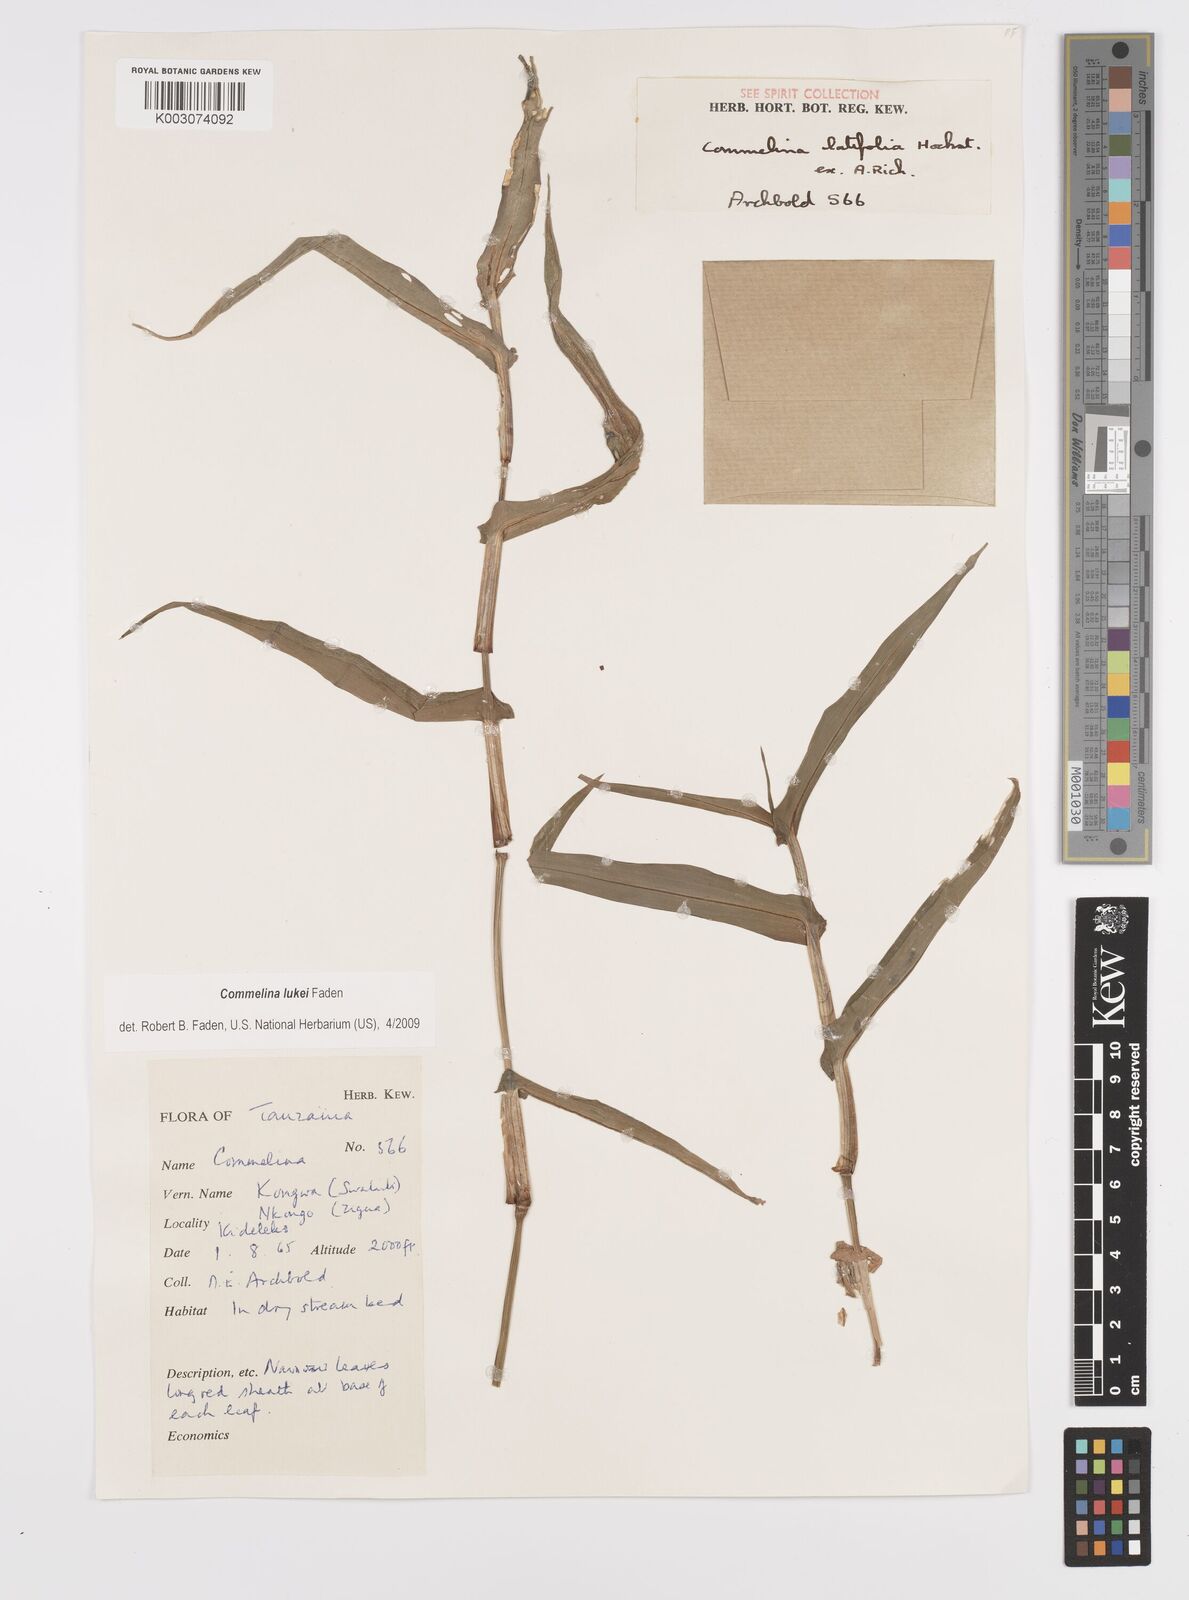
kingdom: Plantae
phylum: Tracheophyta
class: Liliopsida
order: Commelinales
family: Commelinaceae
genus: Commelina
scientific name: Commelina lukei
